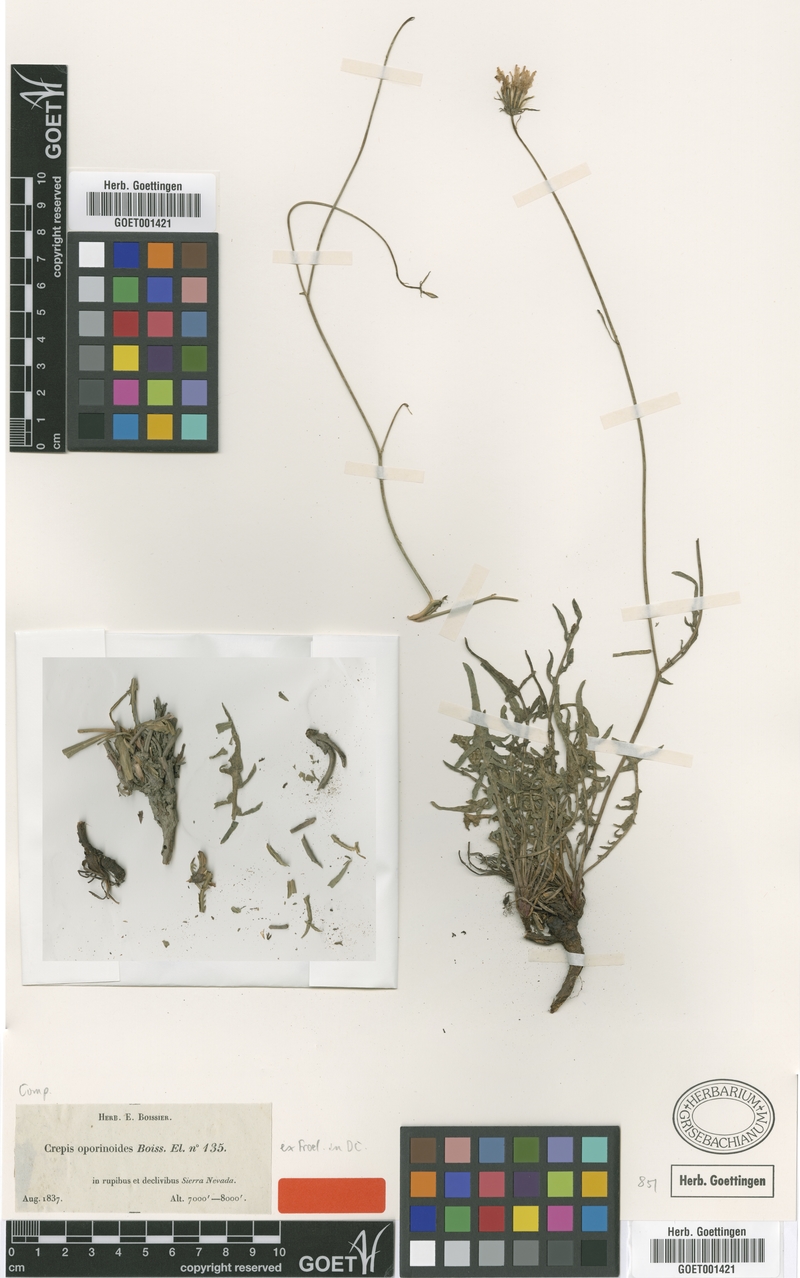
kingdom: Plantae
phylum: Tracheophyta
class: Magnoliopsida
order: Asterales
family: Asteraceae
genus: Crepis
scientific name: Crepis oporinoides
